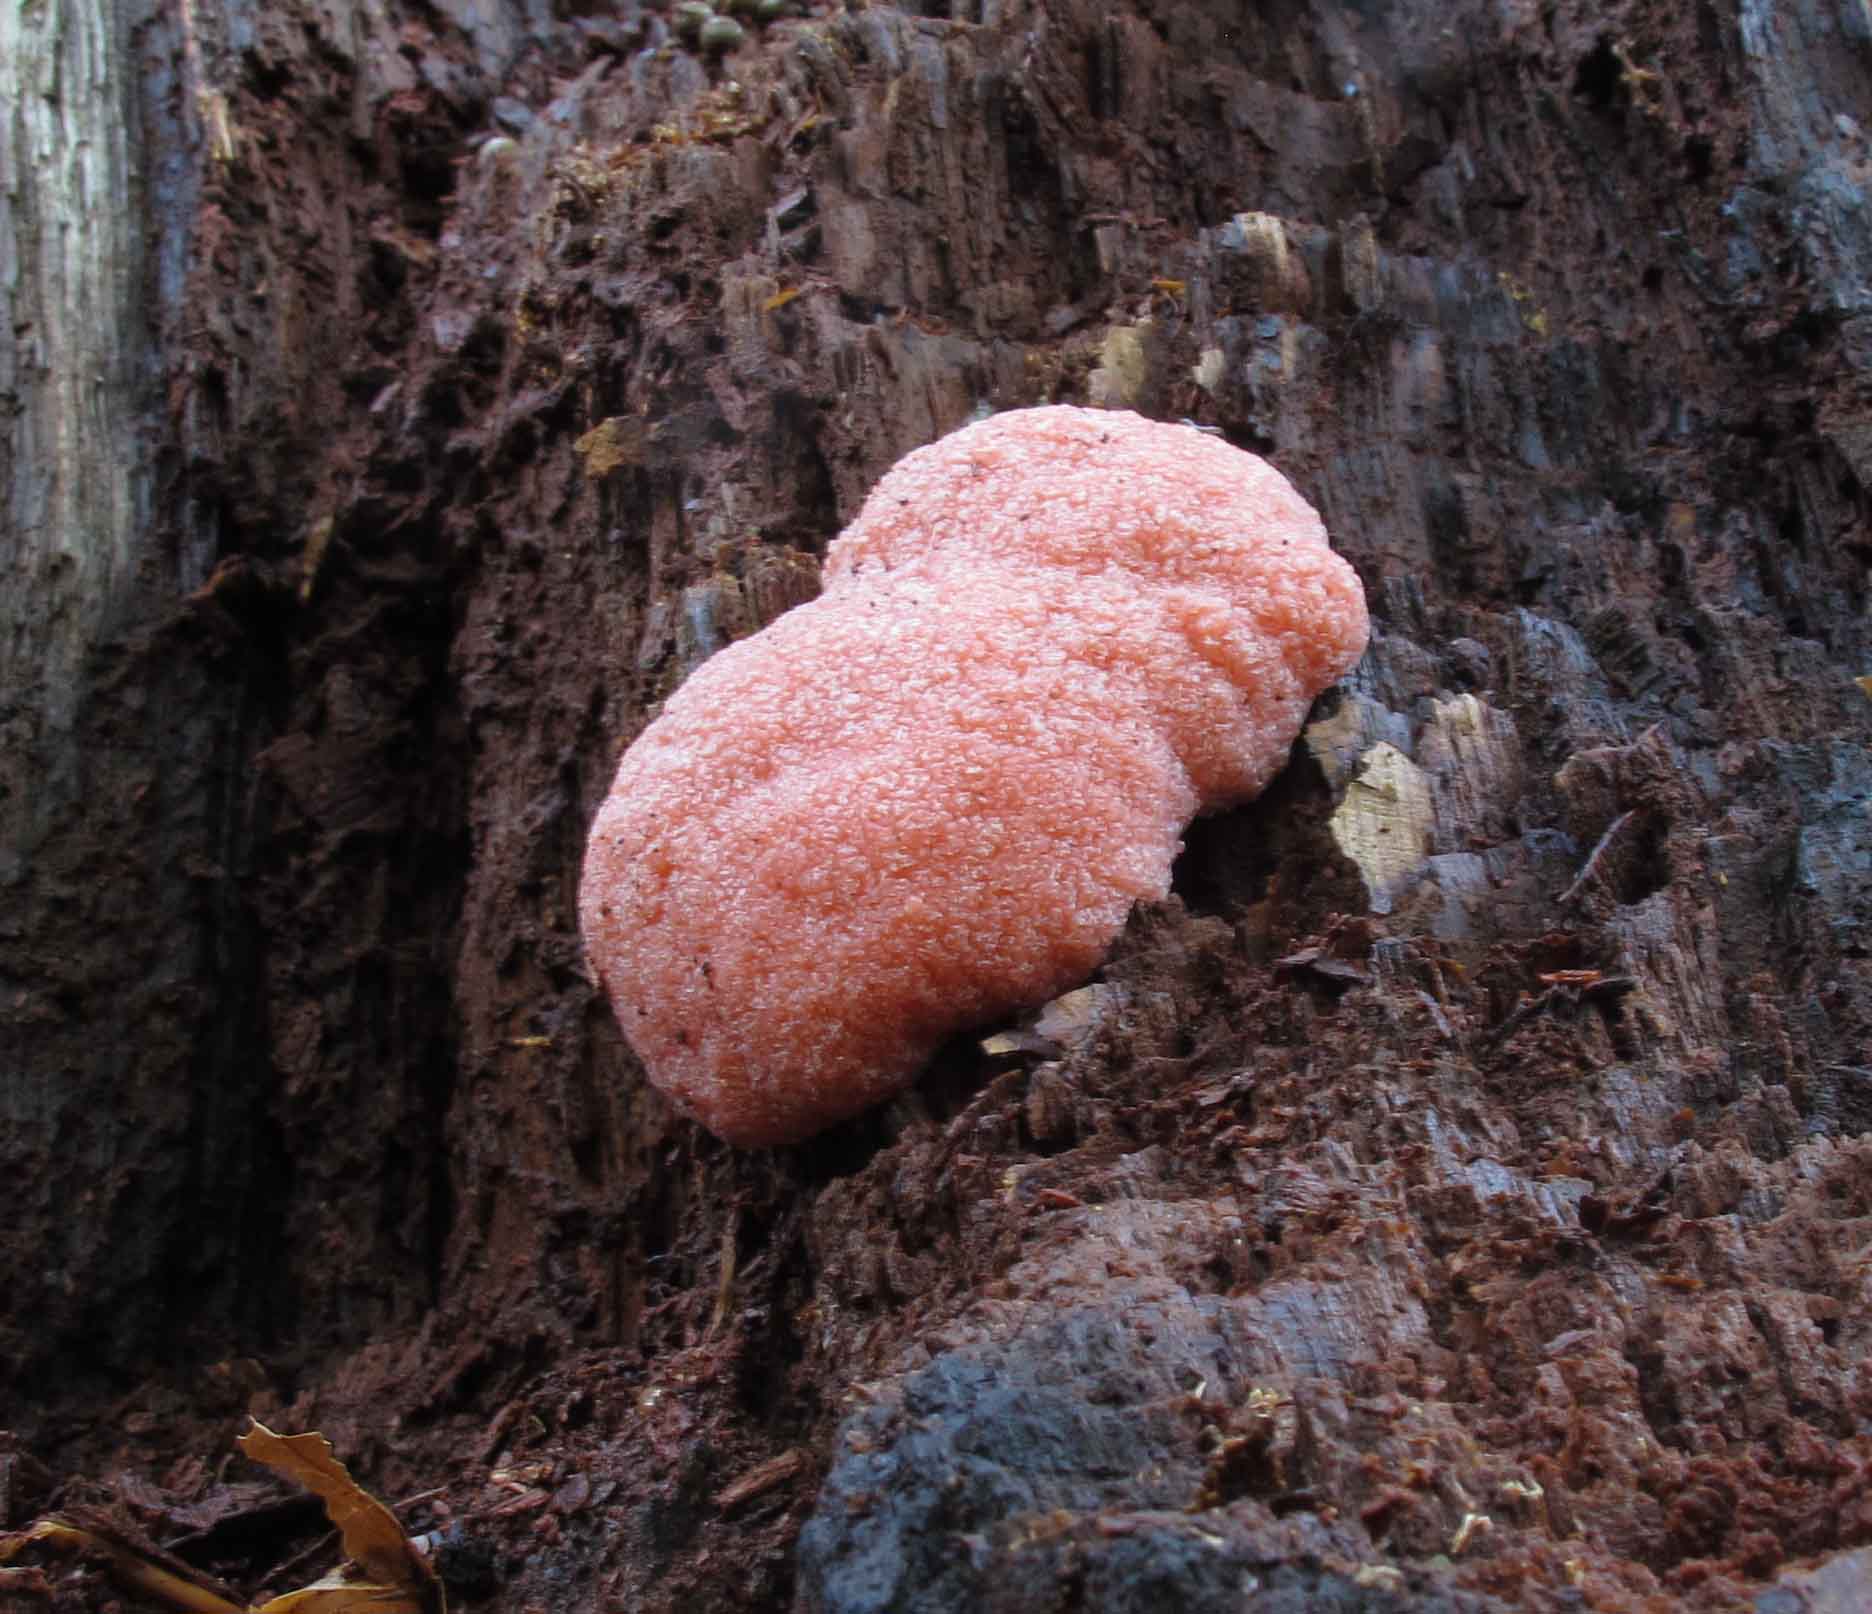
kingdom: Protozoa
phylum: Mycetozoa
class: Myxomycetes
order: Cribrariales
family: Tubiferaceae
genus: Tubifera
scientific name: Tubifera ferruginosa
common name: kanel-støvrør
